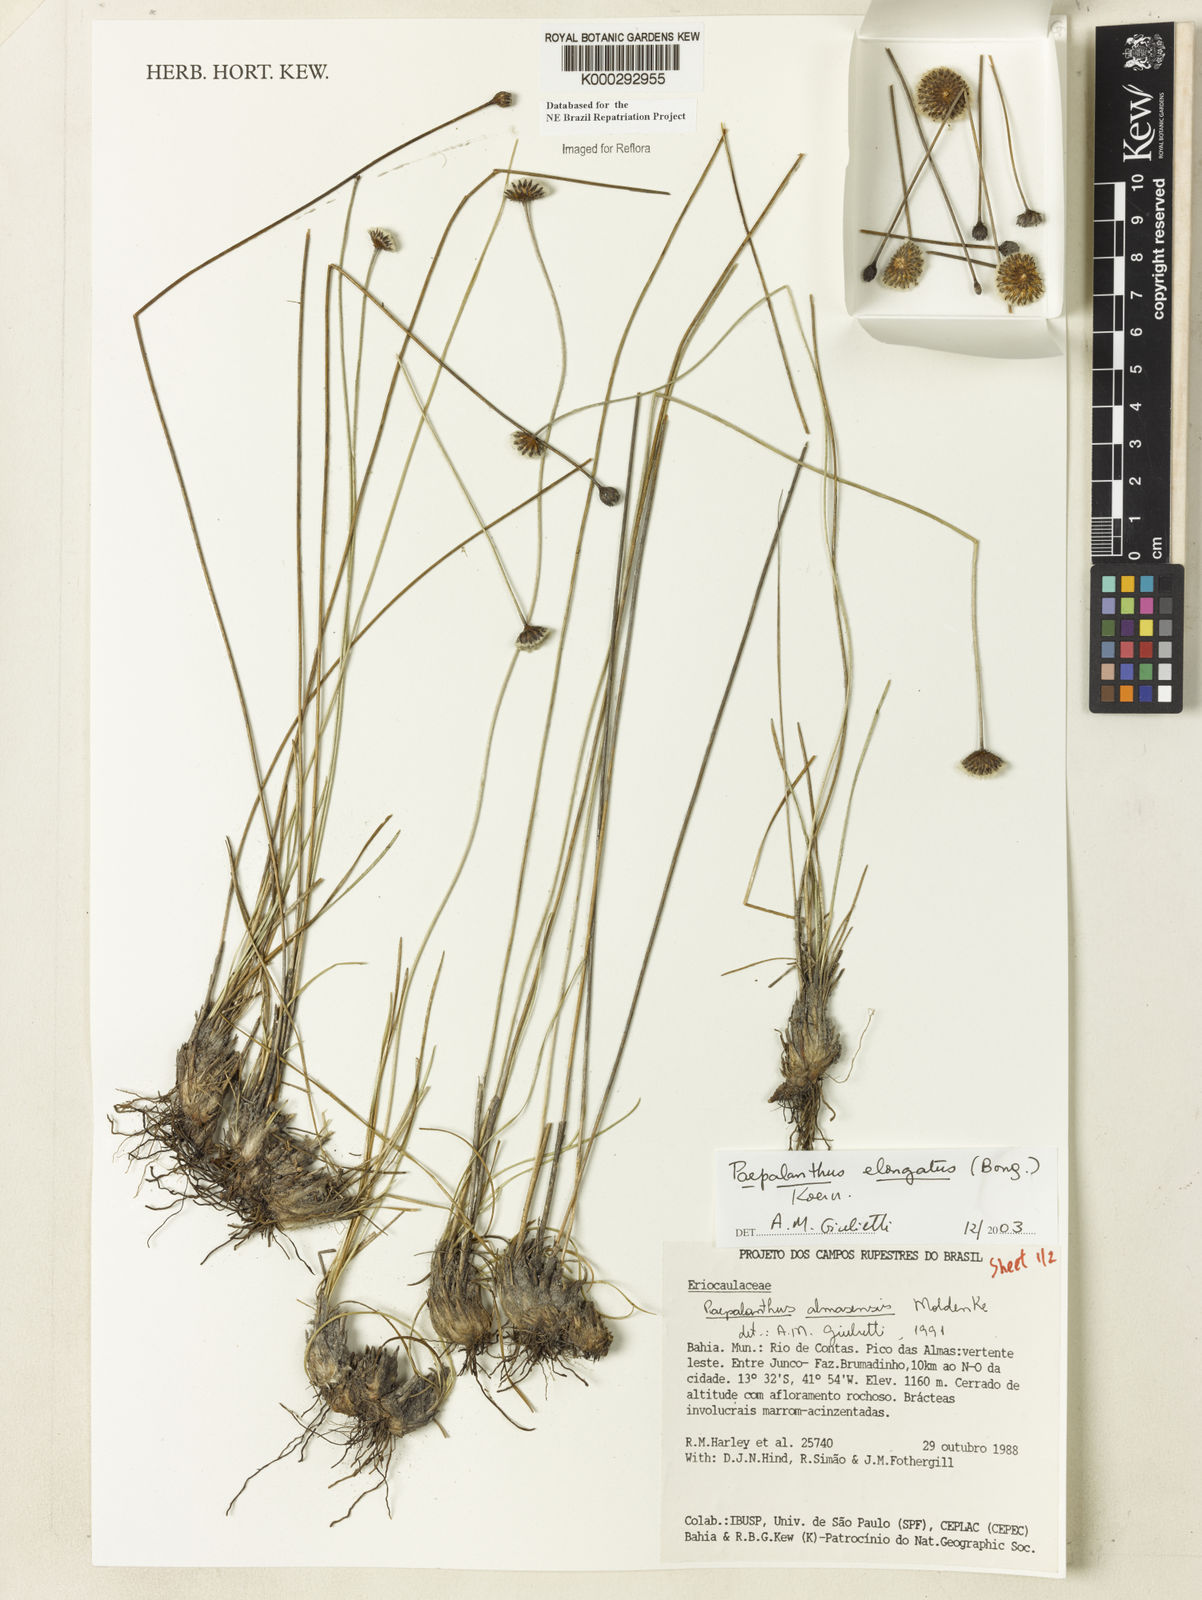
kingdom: Plantae
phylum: Tracheophyta
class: Liliopsida
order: Poales
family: Eriocaulaceae
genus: Paepalanthus
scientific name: Paepalanthus
